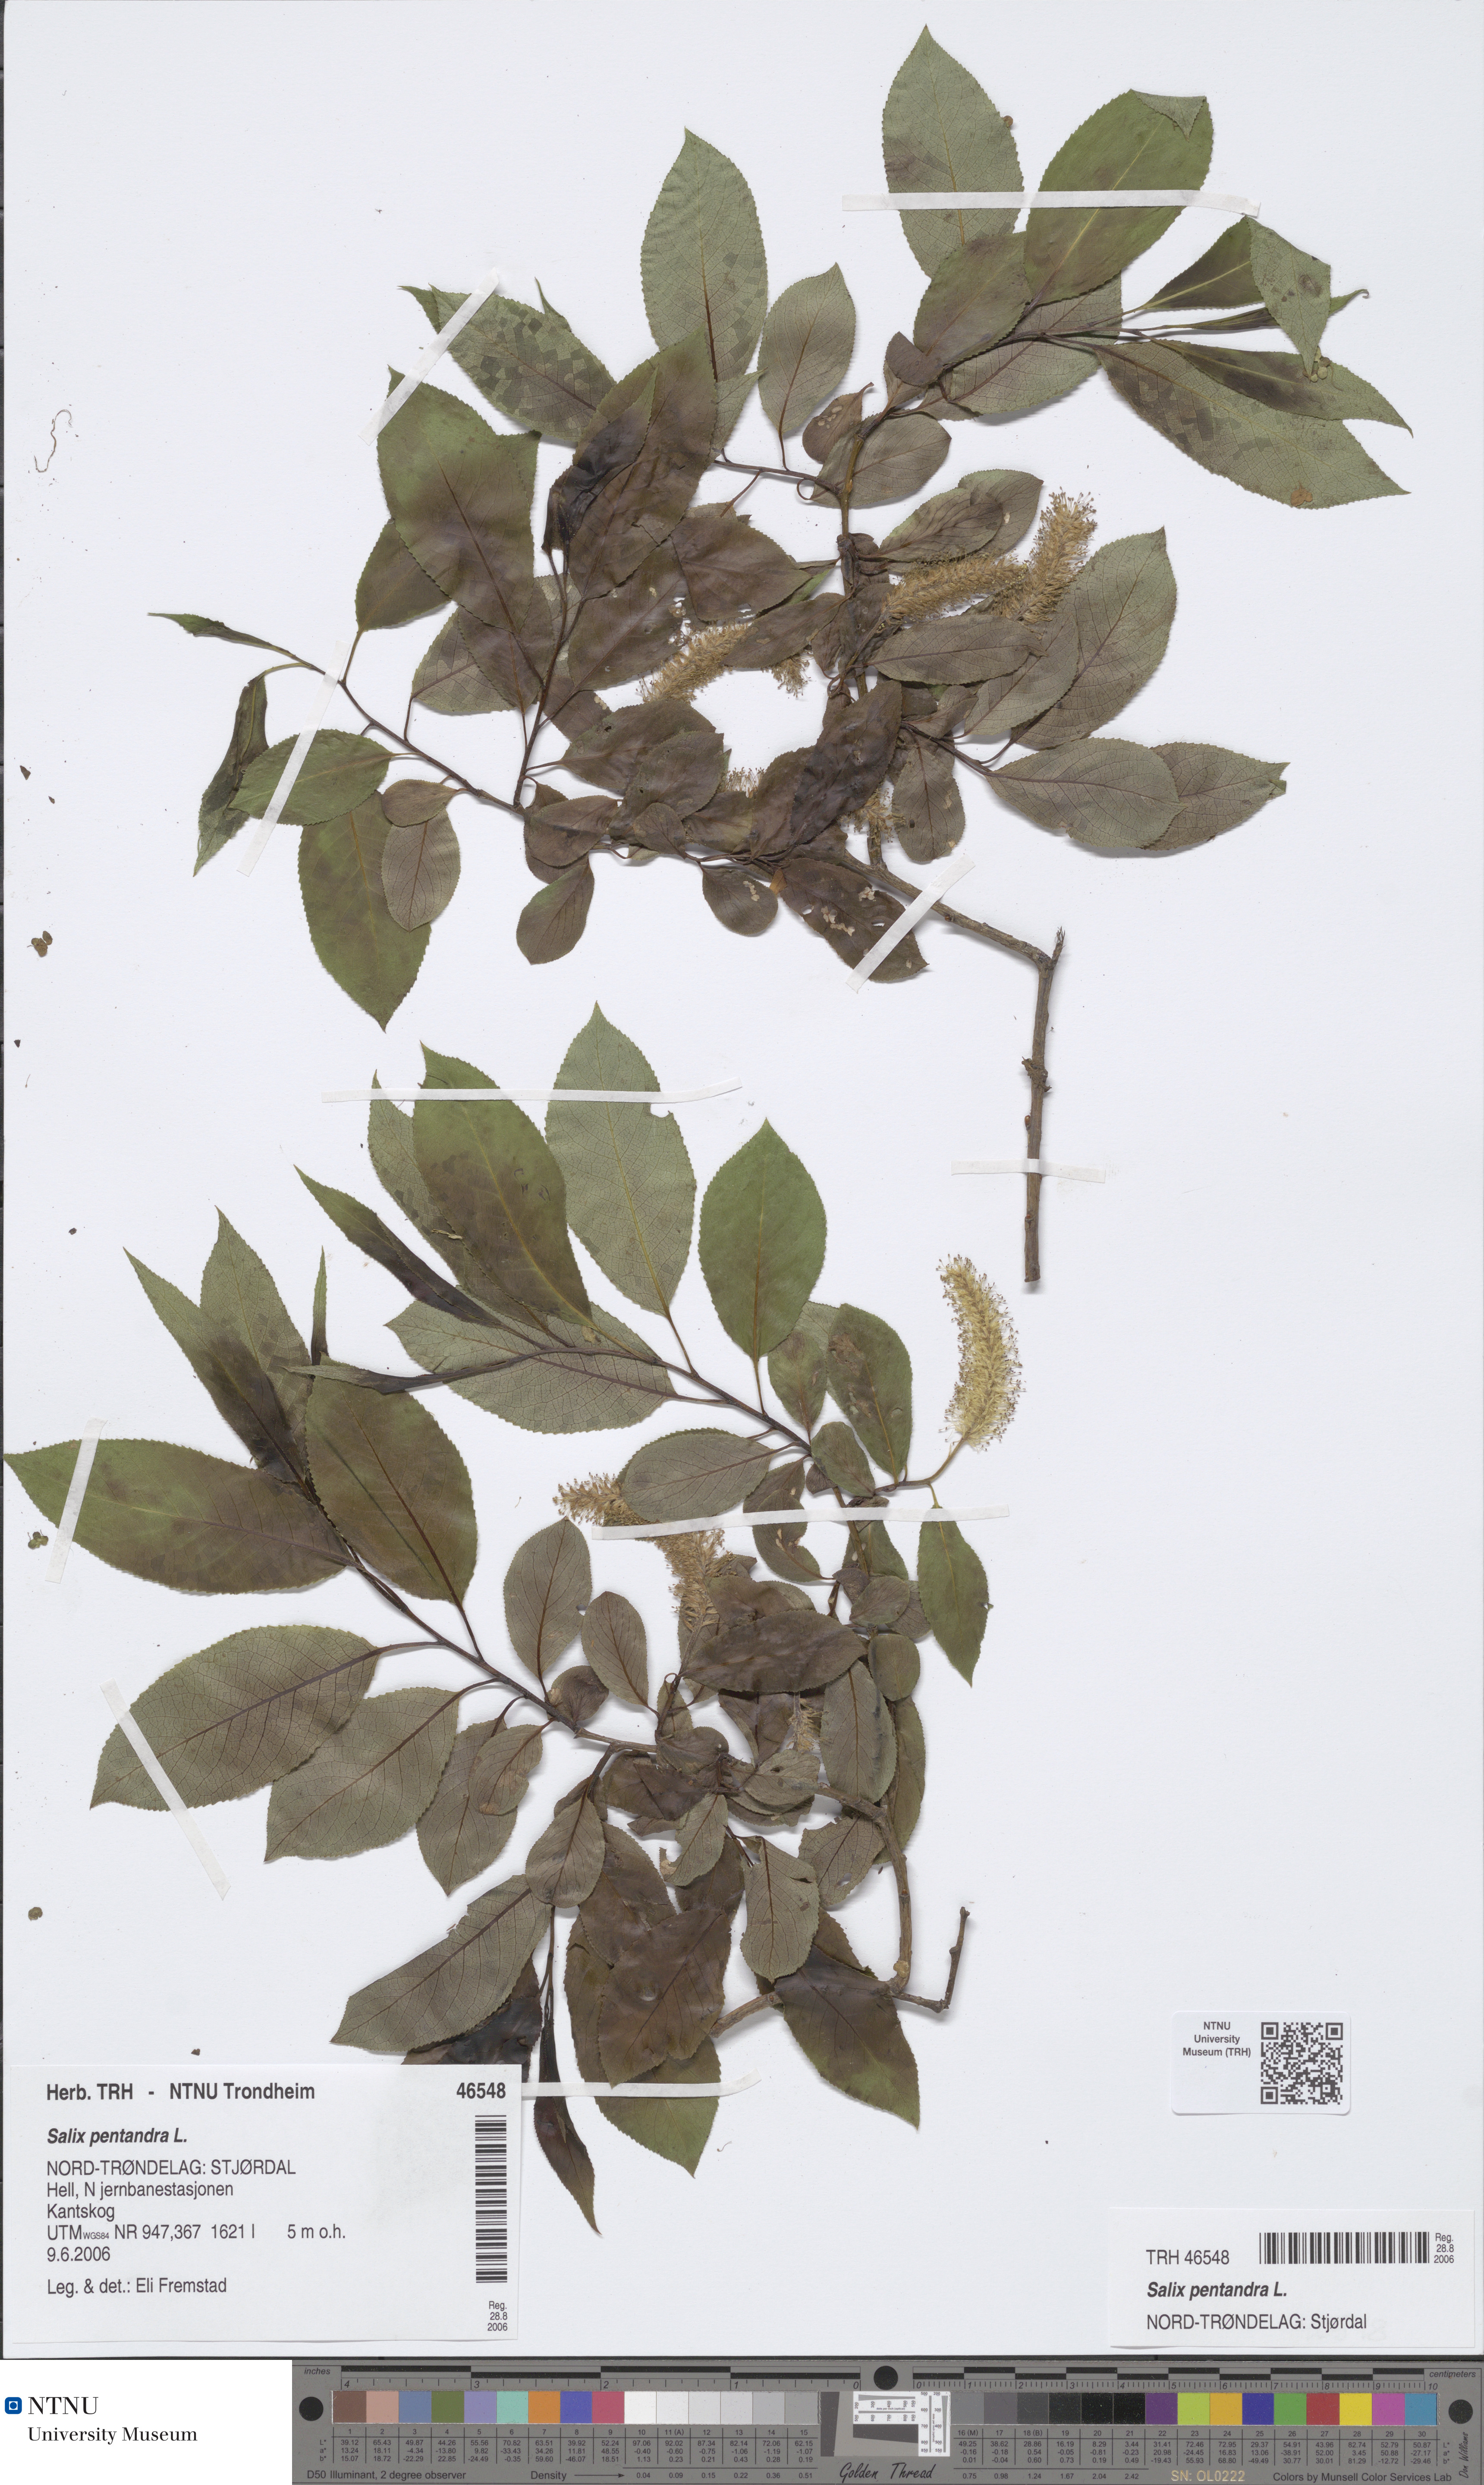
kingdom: Plantae
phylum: Tracheophyta
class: Magnoliopsida
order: Malpighiales
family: Salicaceae
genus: Salix
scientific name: Salix pentandra
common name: Bay willow
